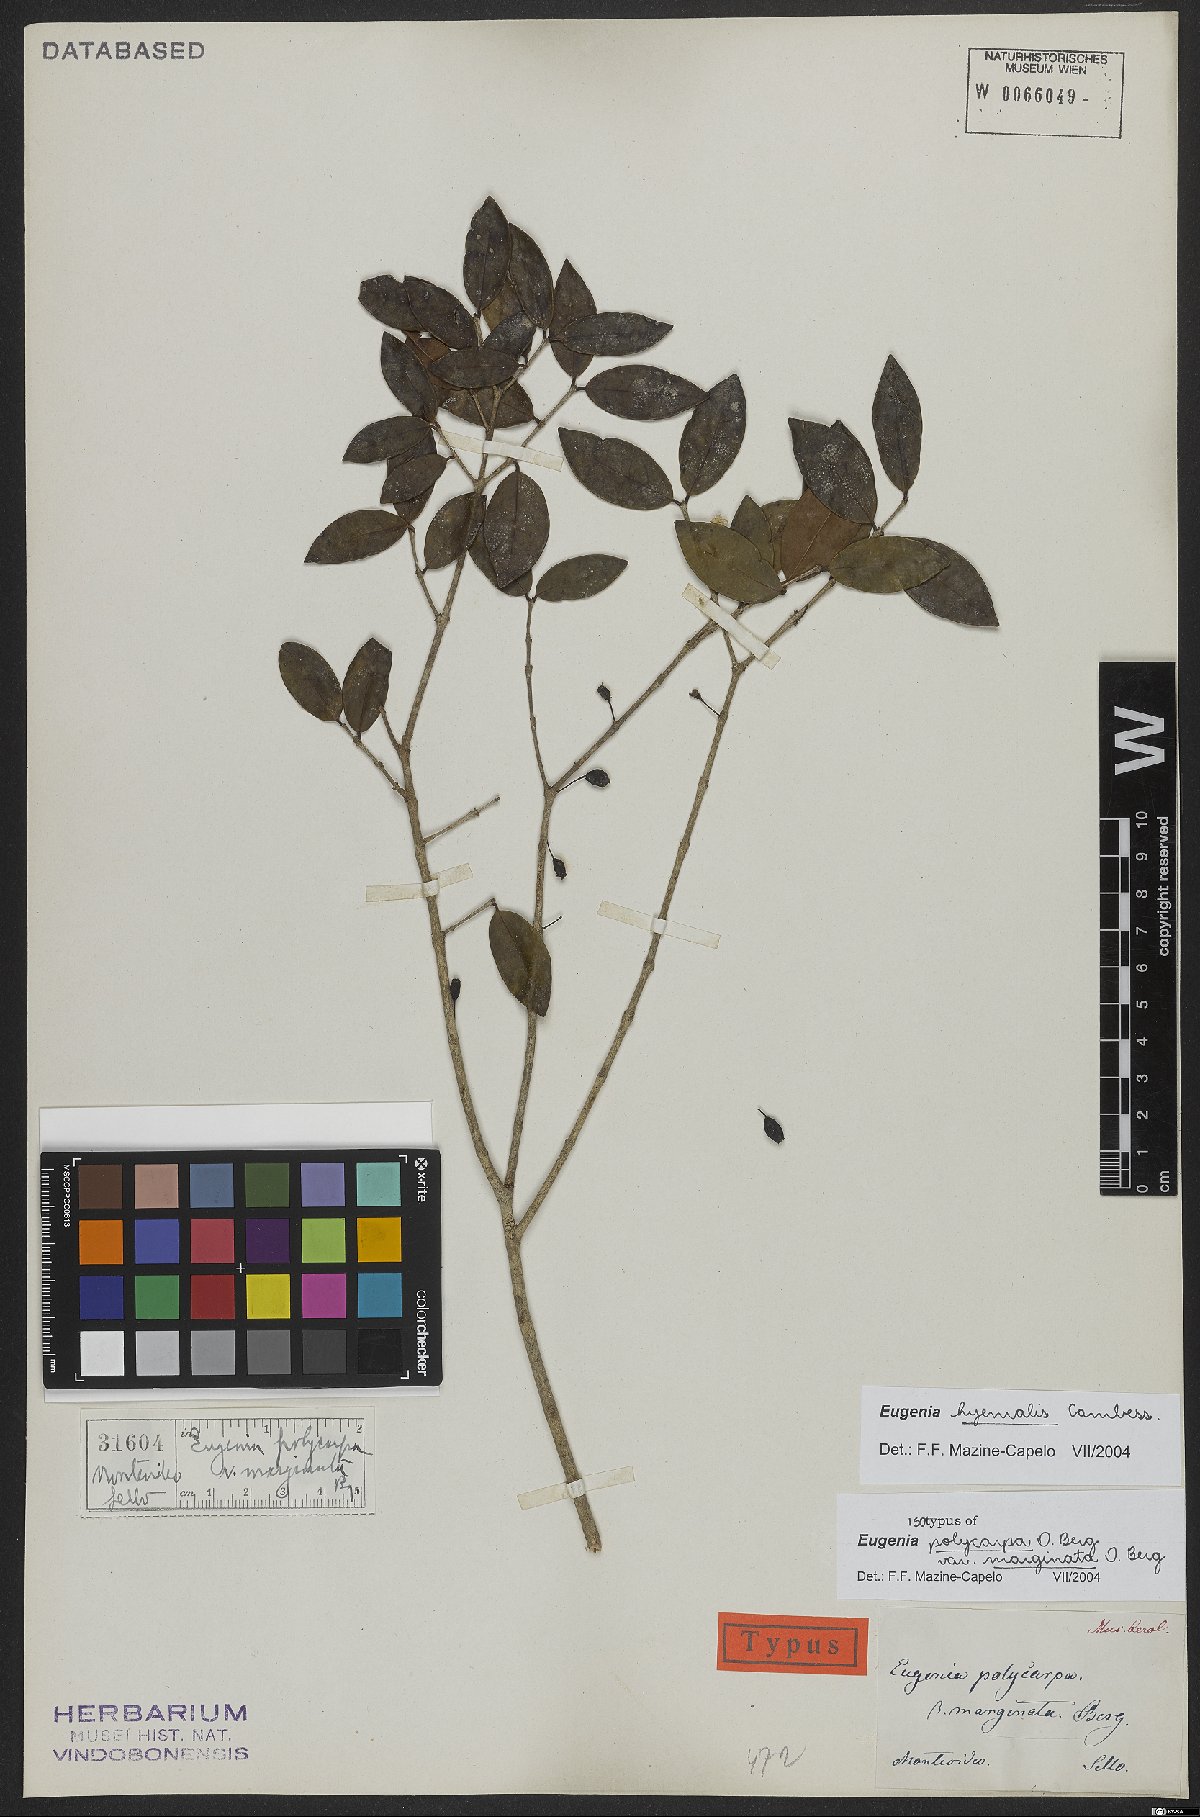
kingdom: Plantae
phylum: Tracheophyta
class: Magnoliopsida
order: Myrtales
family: Myrtaceae
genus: Eugenia
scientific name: Eugenia hiemalis
